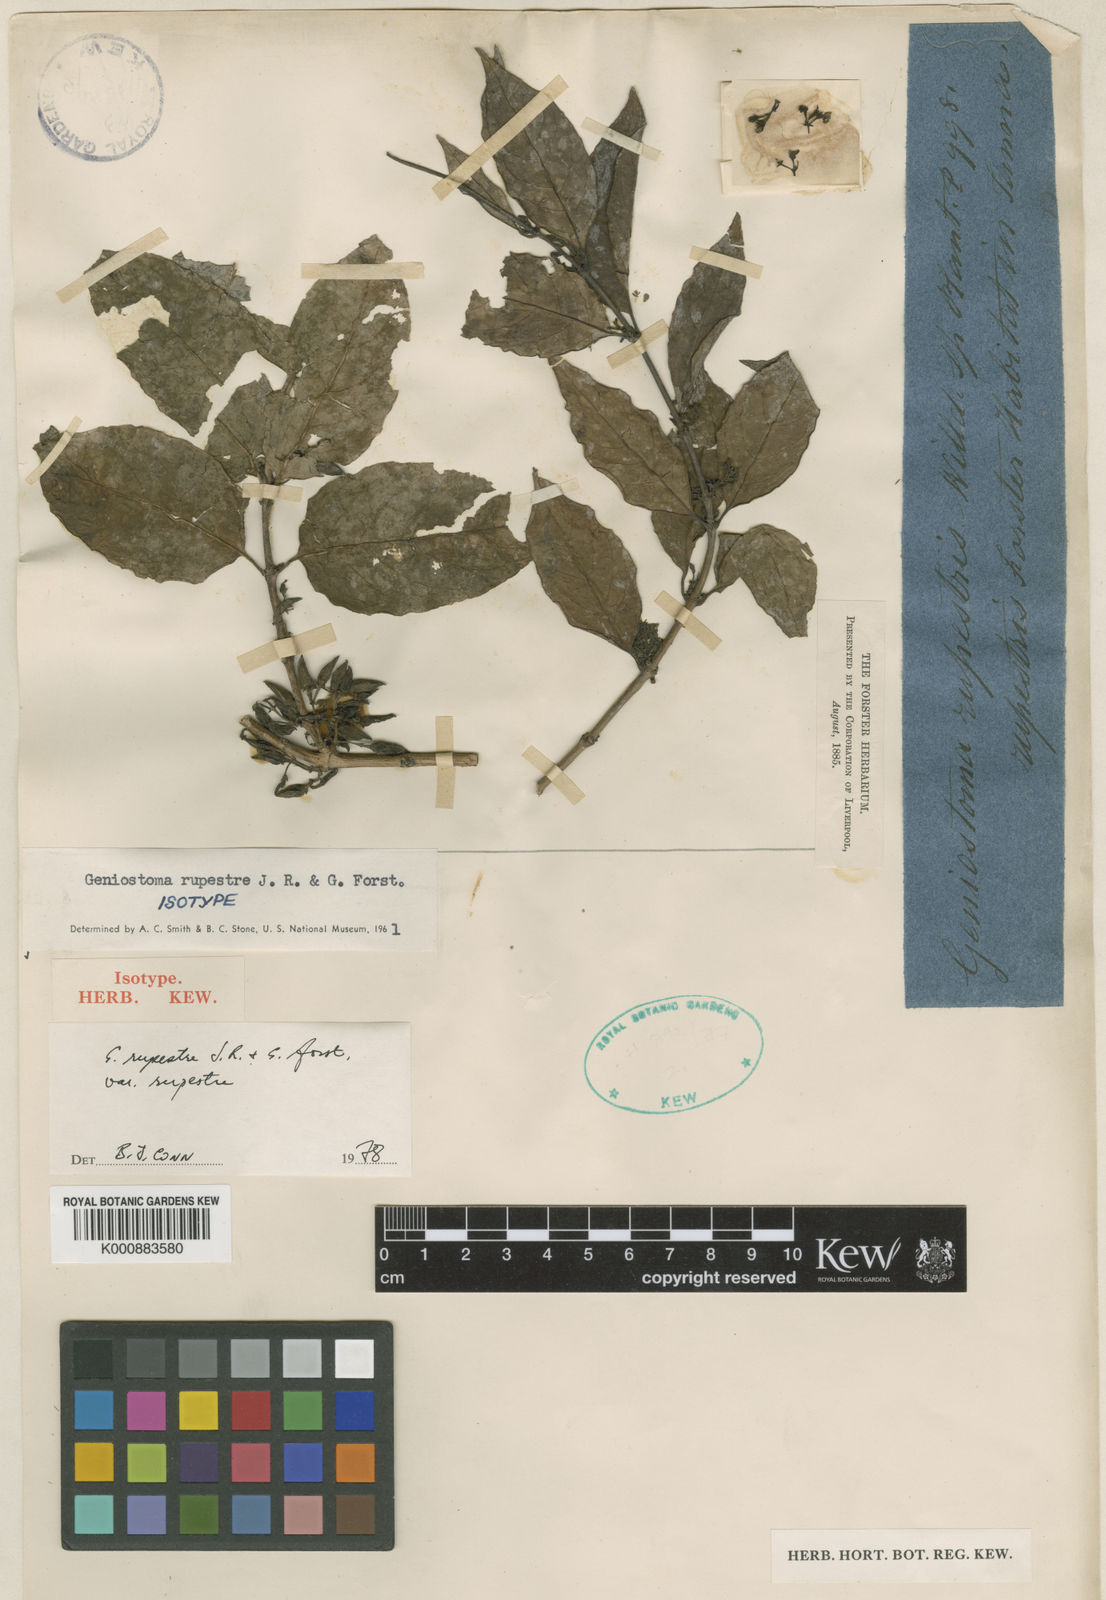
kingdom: Plantae
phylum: Tracheophyta
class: Magnoliopsida
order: Gentianales
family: Loganiaceae
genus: Geniostoma
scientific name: Geniostoma rupestre
